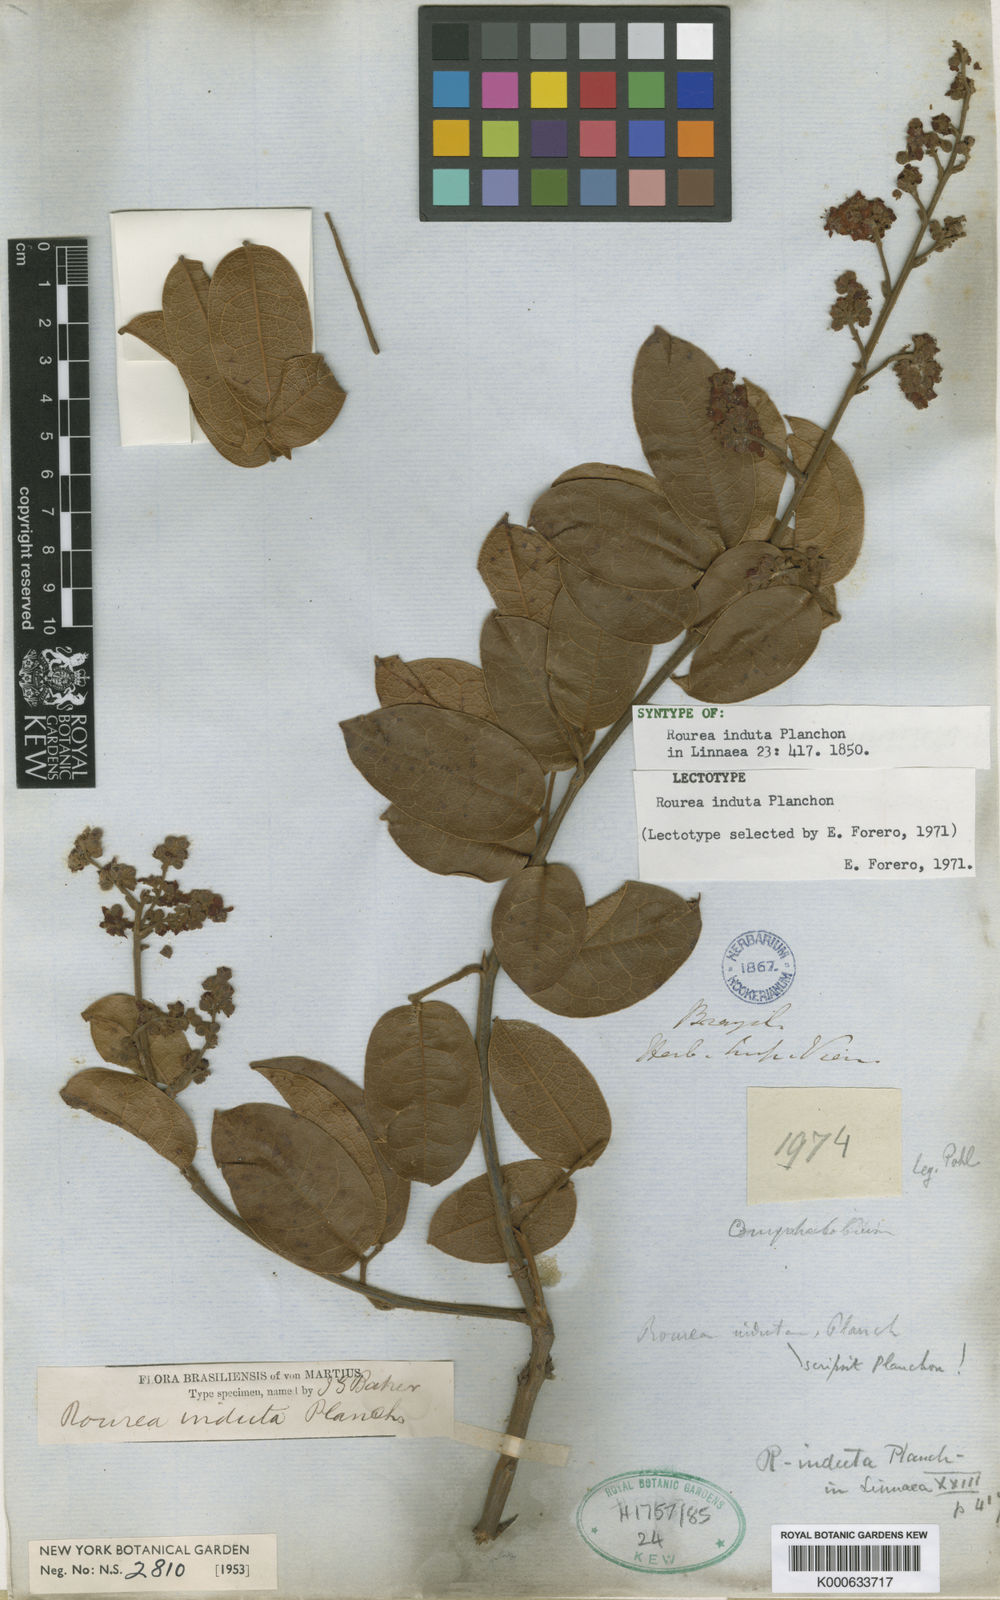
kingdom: Plantae
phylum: Tracheophyta
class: Magnoliopsida
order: Oxalidales
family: Connaraceae
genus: Rourea
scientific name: Rourea induta
